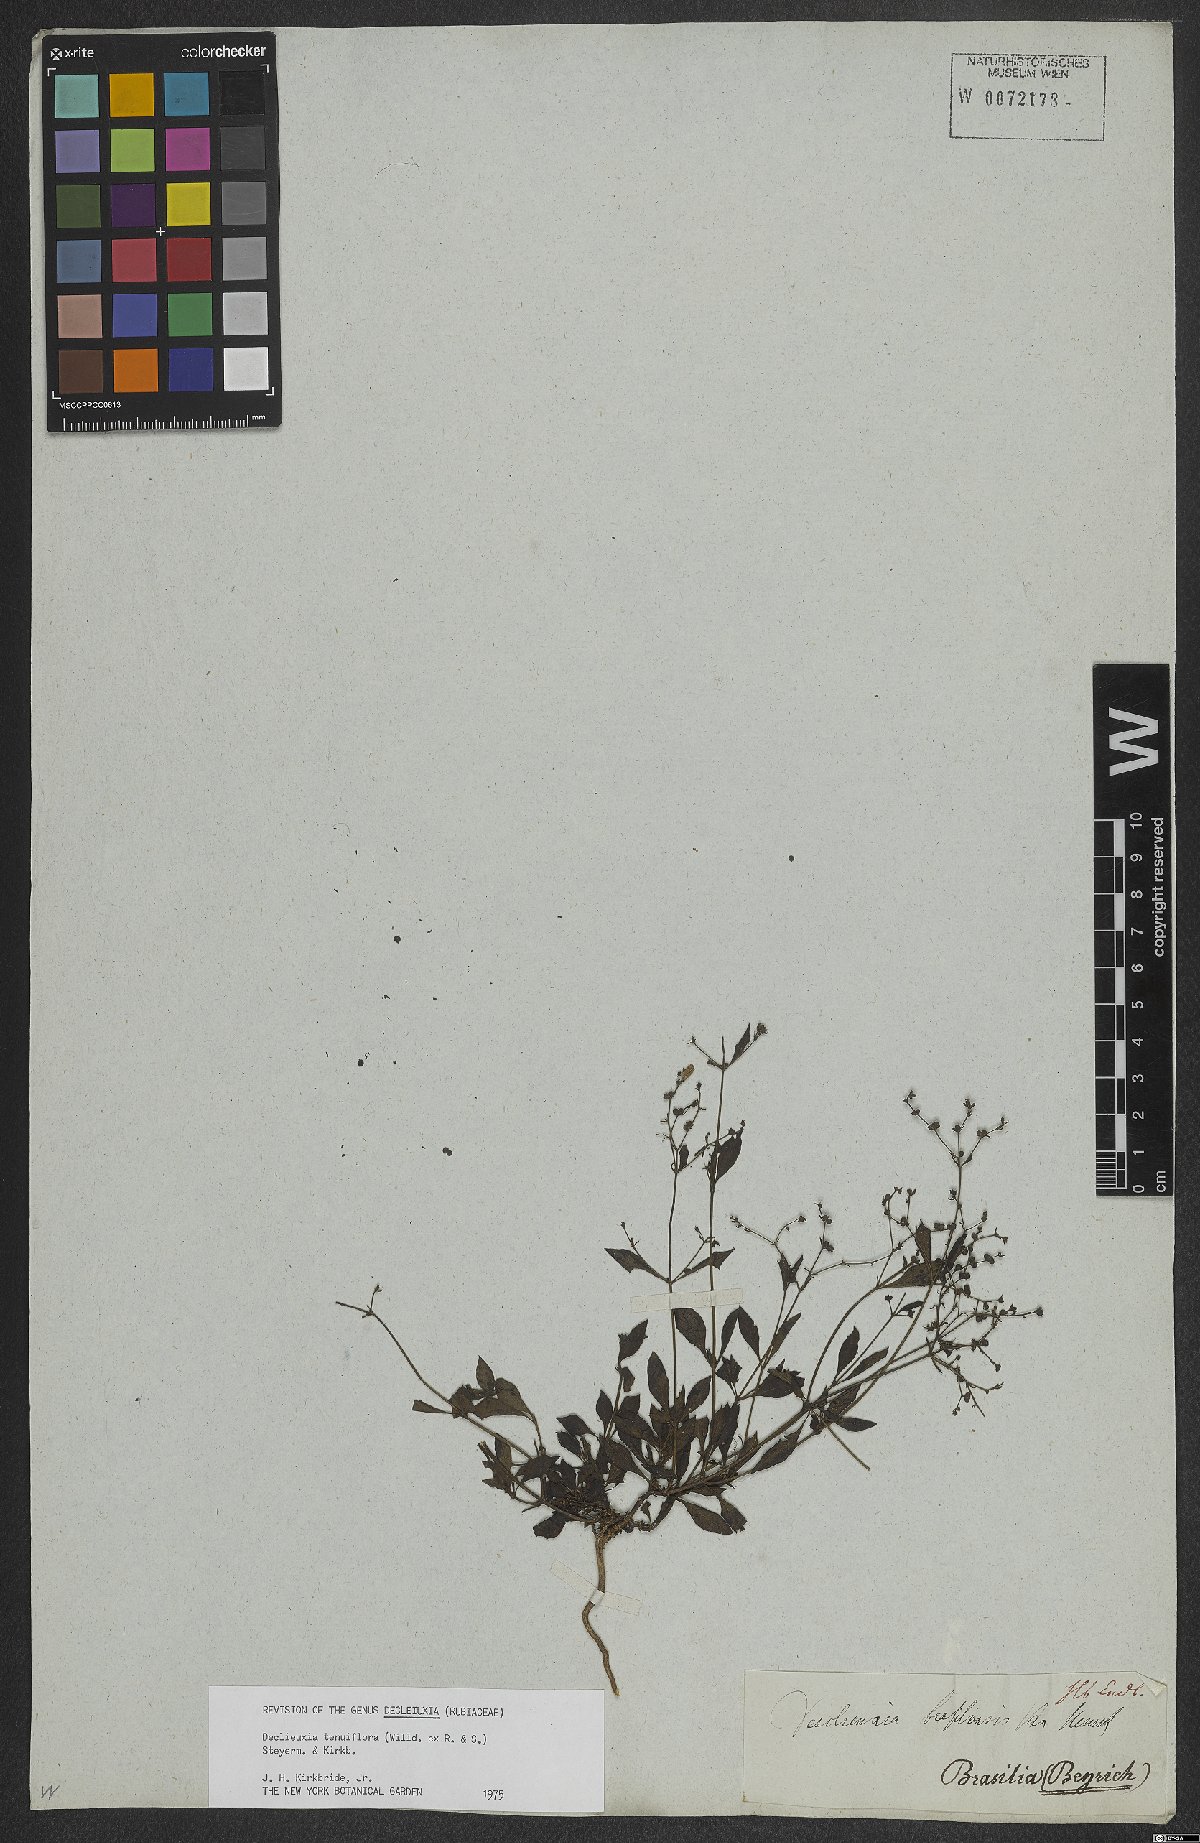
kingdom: Plantae
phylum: Tracheophyta
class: Magnoliopsida
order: Gentianales
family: Rubiaceae
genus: Declieuxia
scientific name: Declieuxia tenuiflora
